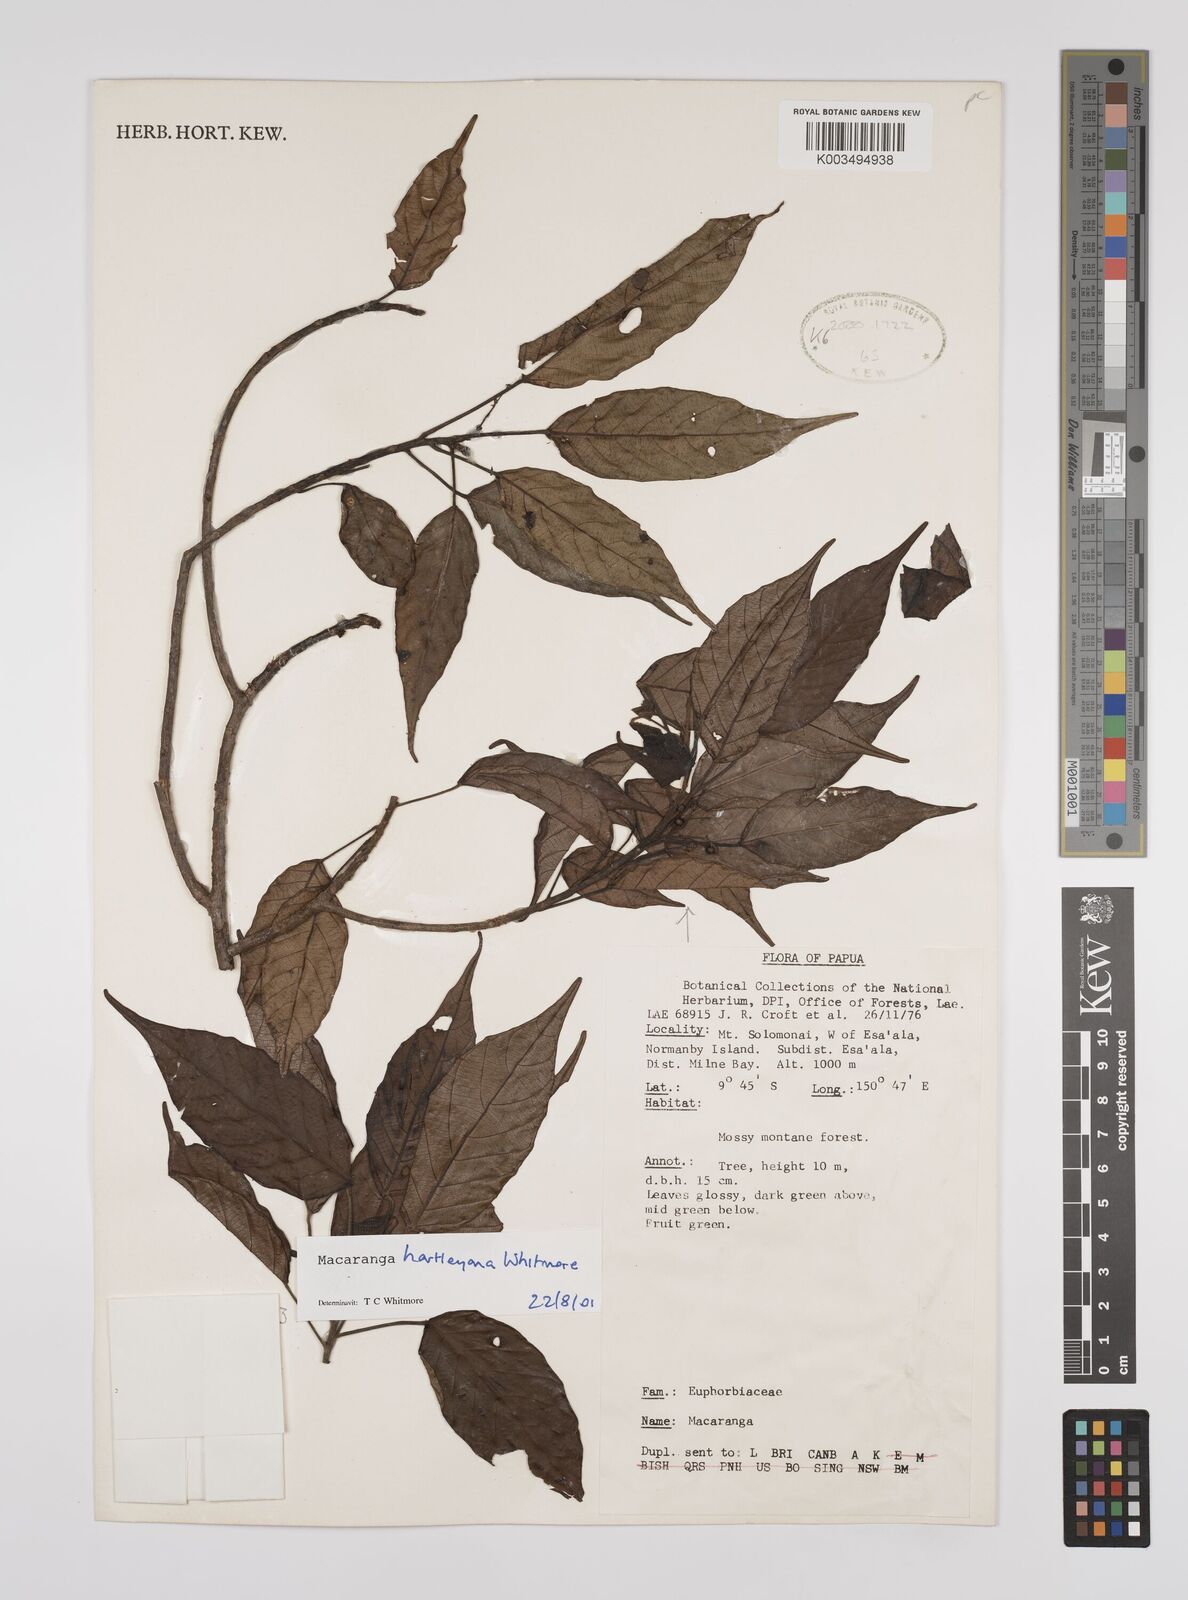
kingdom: Plantae
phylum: Tracheophyta
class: Magnoliopsida
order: Malpighiales
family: Euphorbiaceae
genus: Macaranga
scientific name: Macaranga hartleyana
